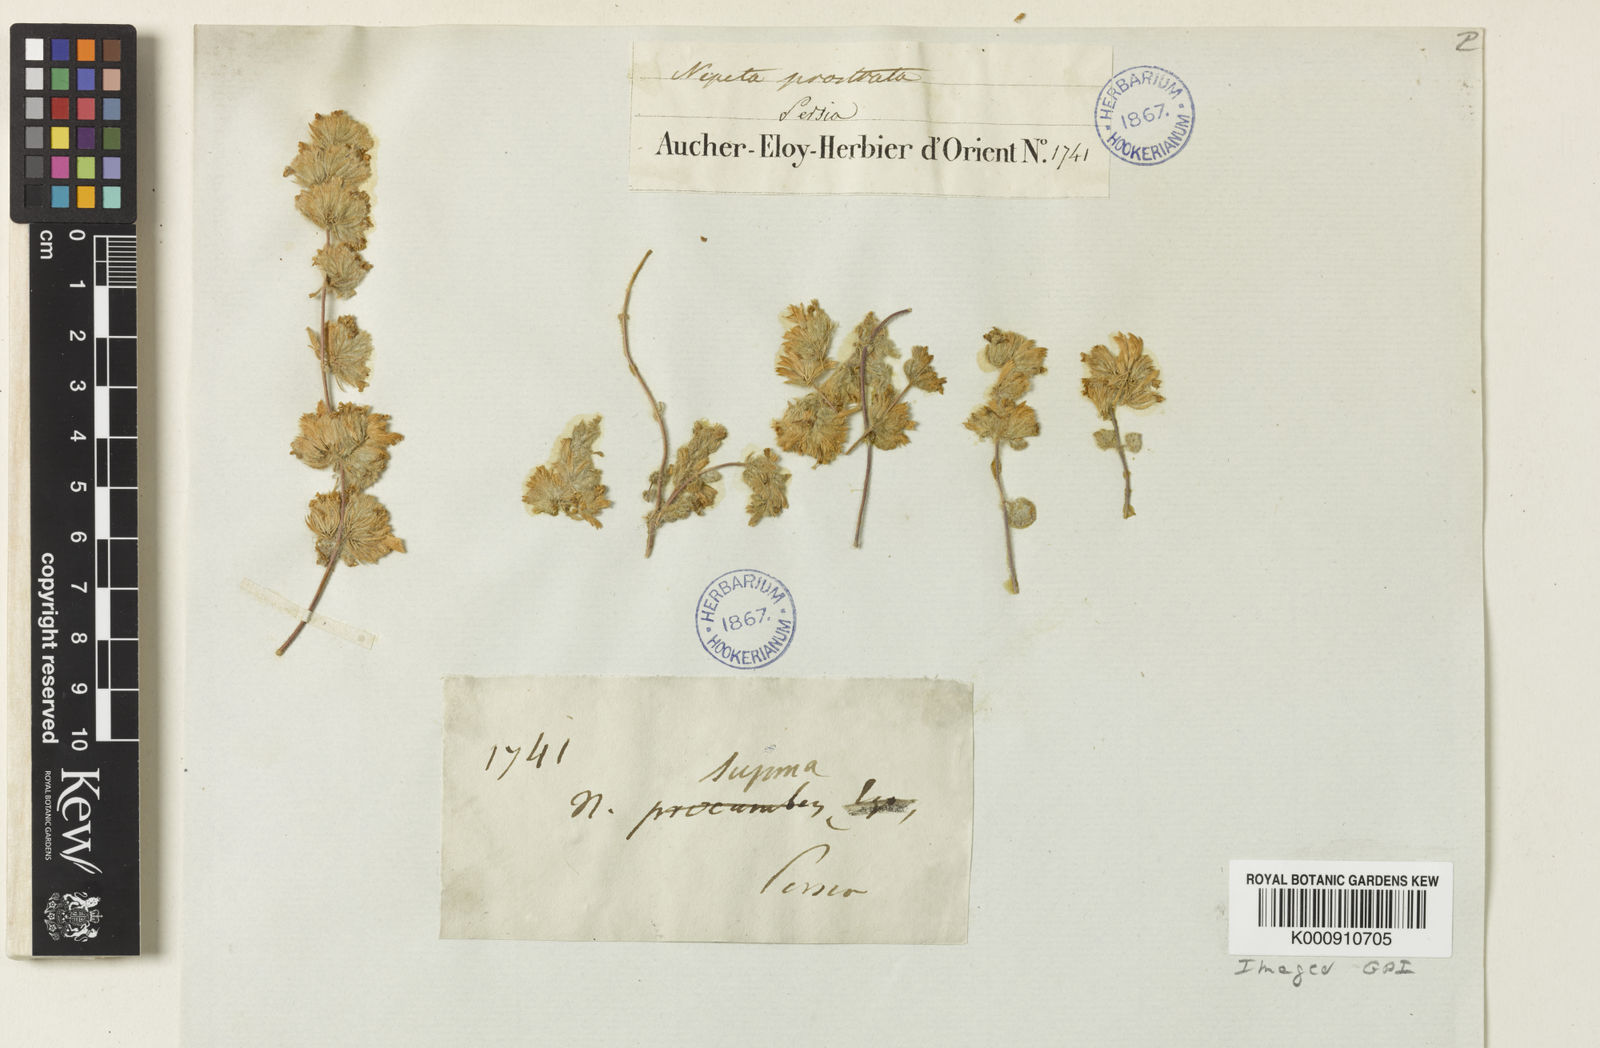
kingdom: Plantae
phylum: Tracheophyta
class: Magnoliopsida
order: Lamiales
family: Lamiaceae
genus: Nepeta
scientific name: Nepeta prostrata
